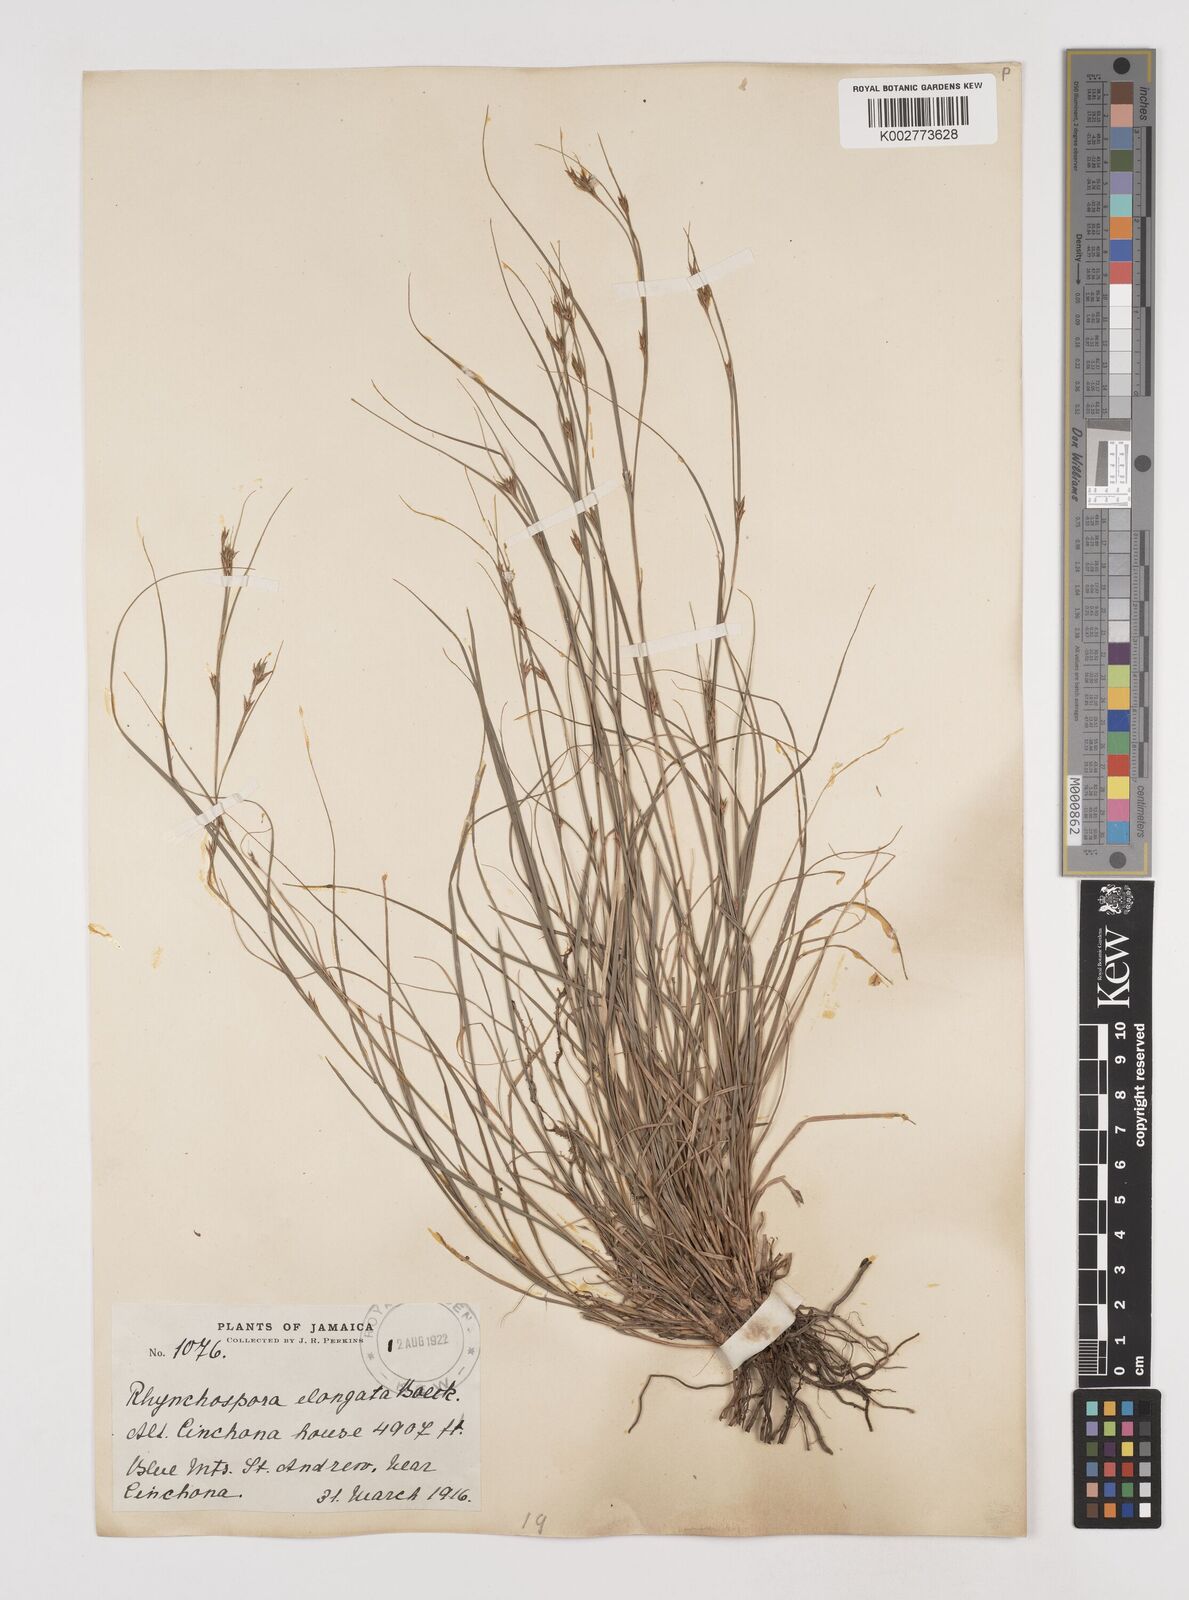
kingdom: Plantae
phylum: Tracheophyta
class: Liliopsida
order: Poales
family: Cyperaceae
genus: Rhynchospora
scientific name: Rhynchospora biflora
